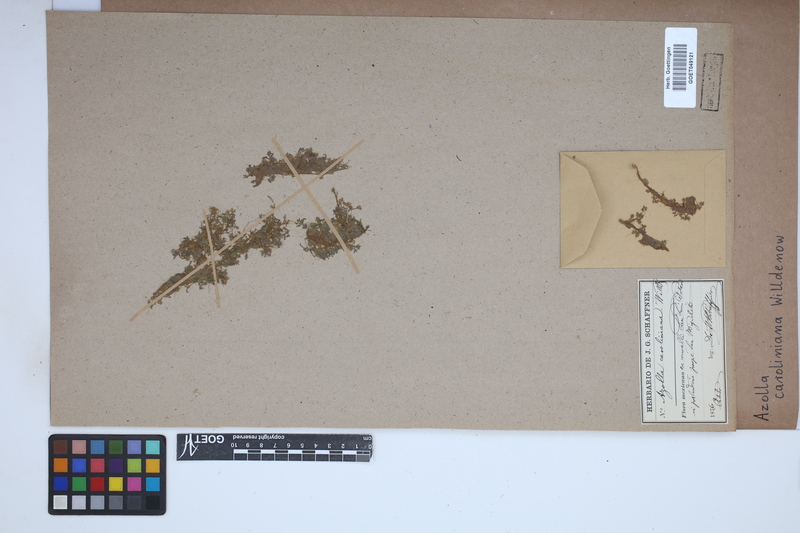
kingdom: Plantae
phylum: Tracheophyta
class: Polypodiopsida
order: Salviniales
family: Salviniaceae
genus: Azolla
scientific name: Azolla caroliniana
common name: Carolina mosquitofern
